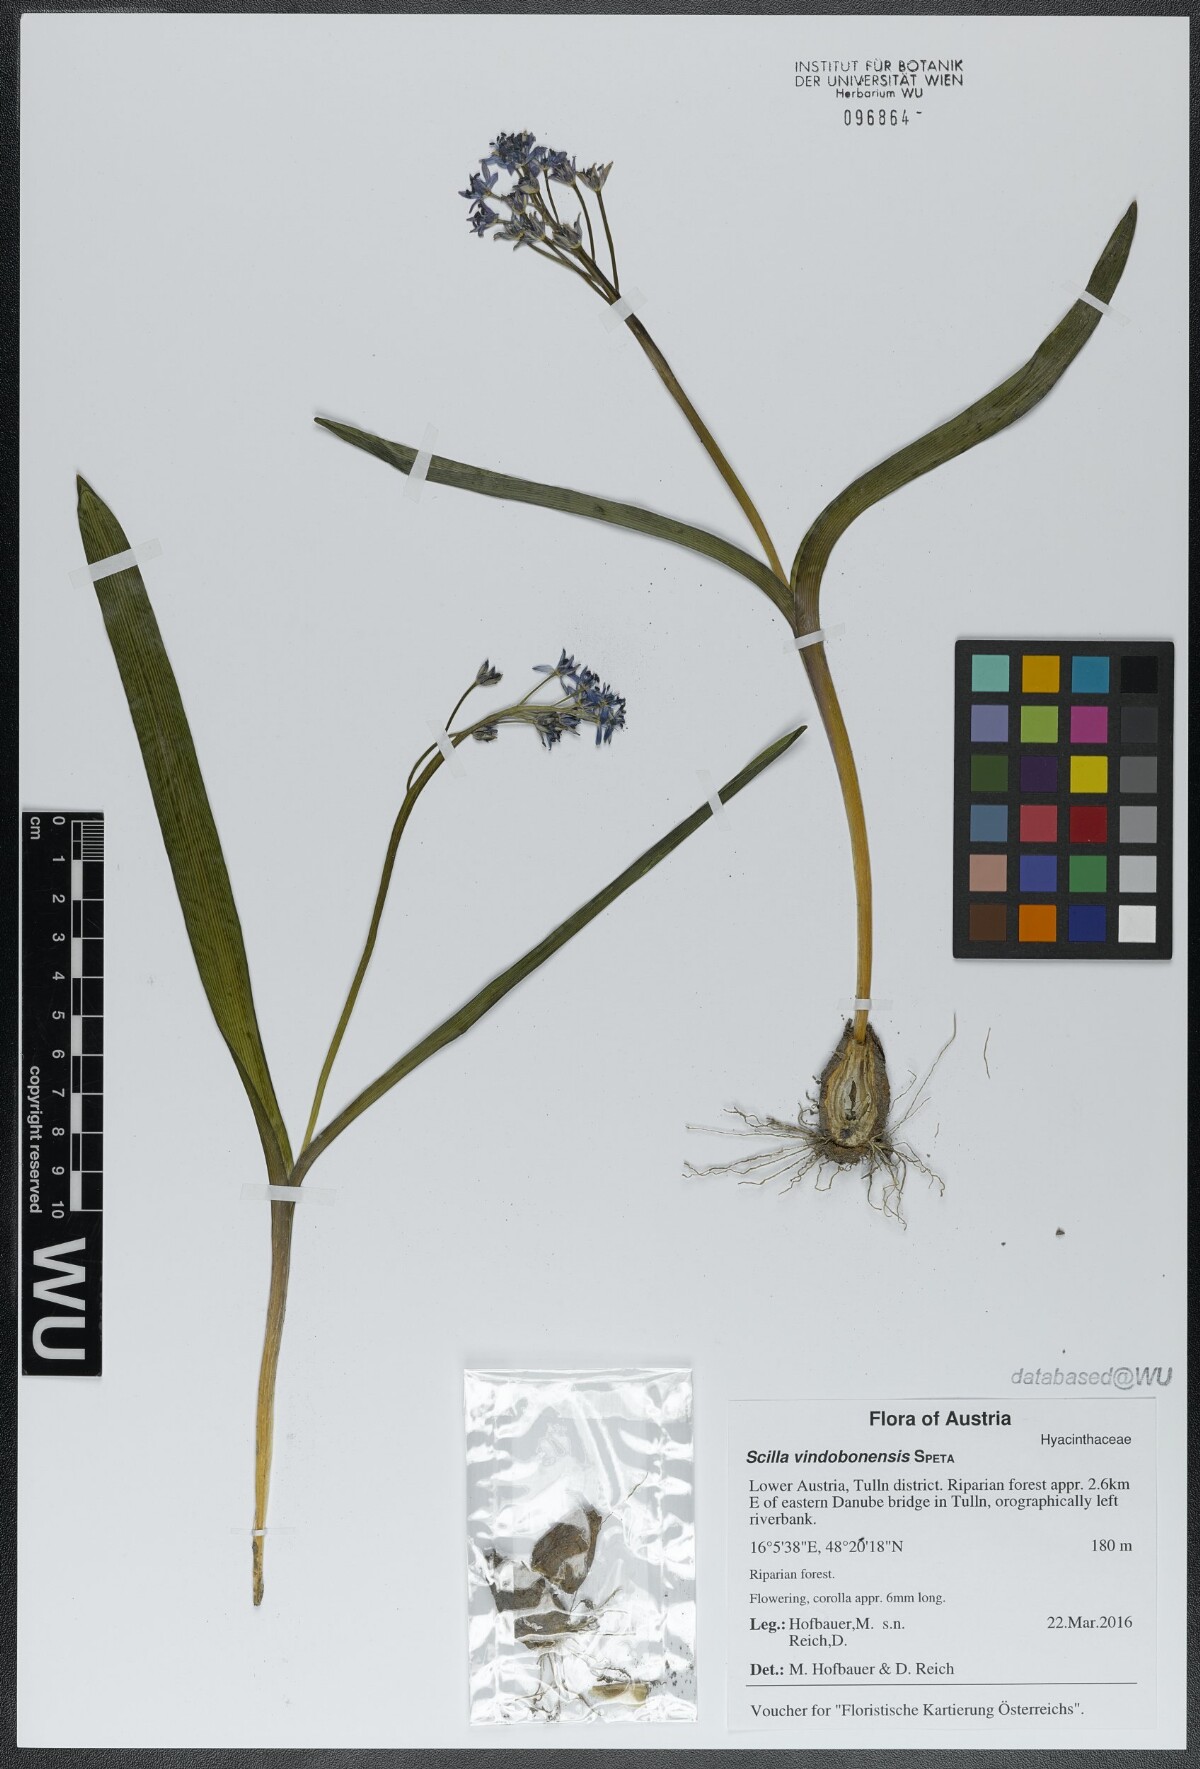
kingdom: Plantae
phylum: Tracheophyta
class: Liliopsida
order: Asparagales
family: Asparagaceae
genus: Scilla
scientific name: Scilla vindobonensis
